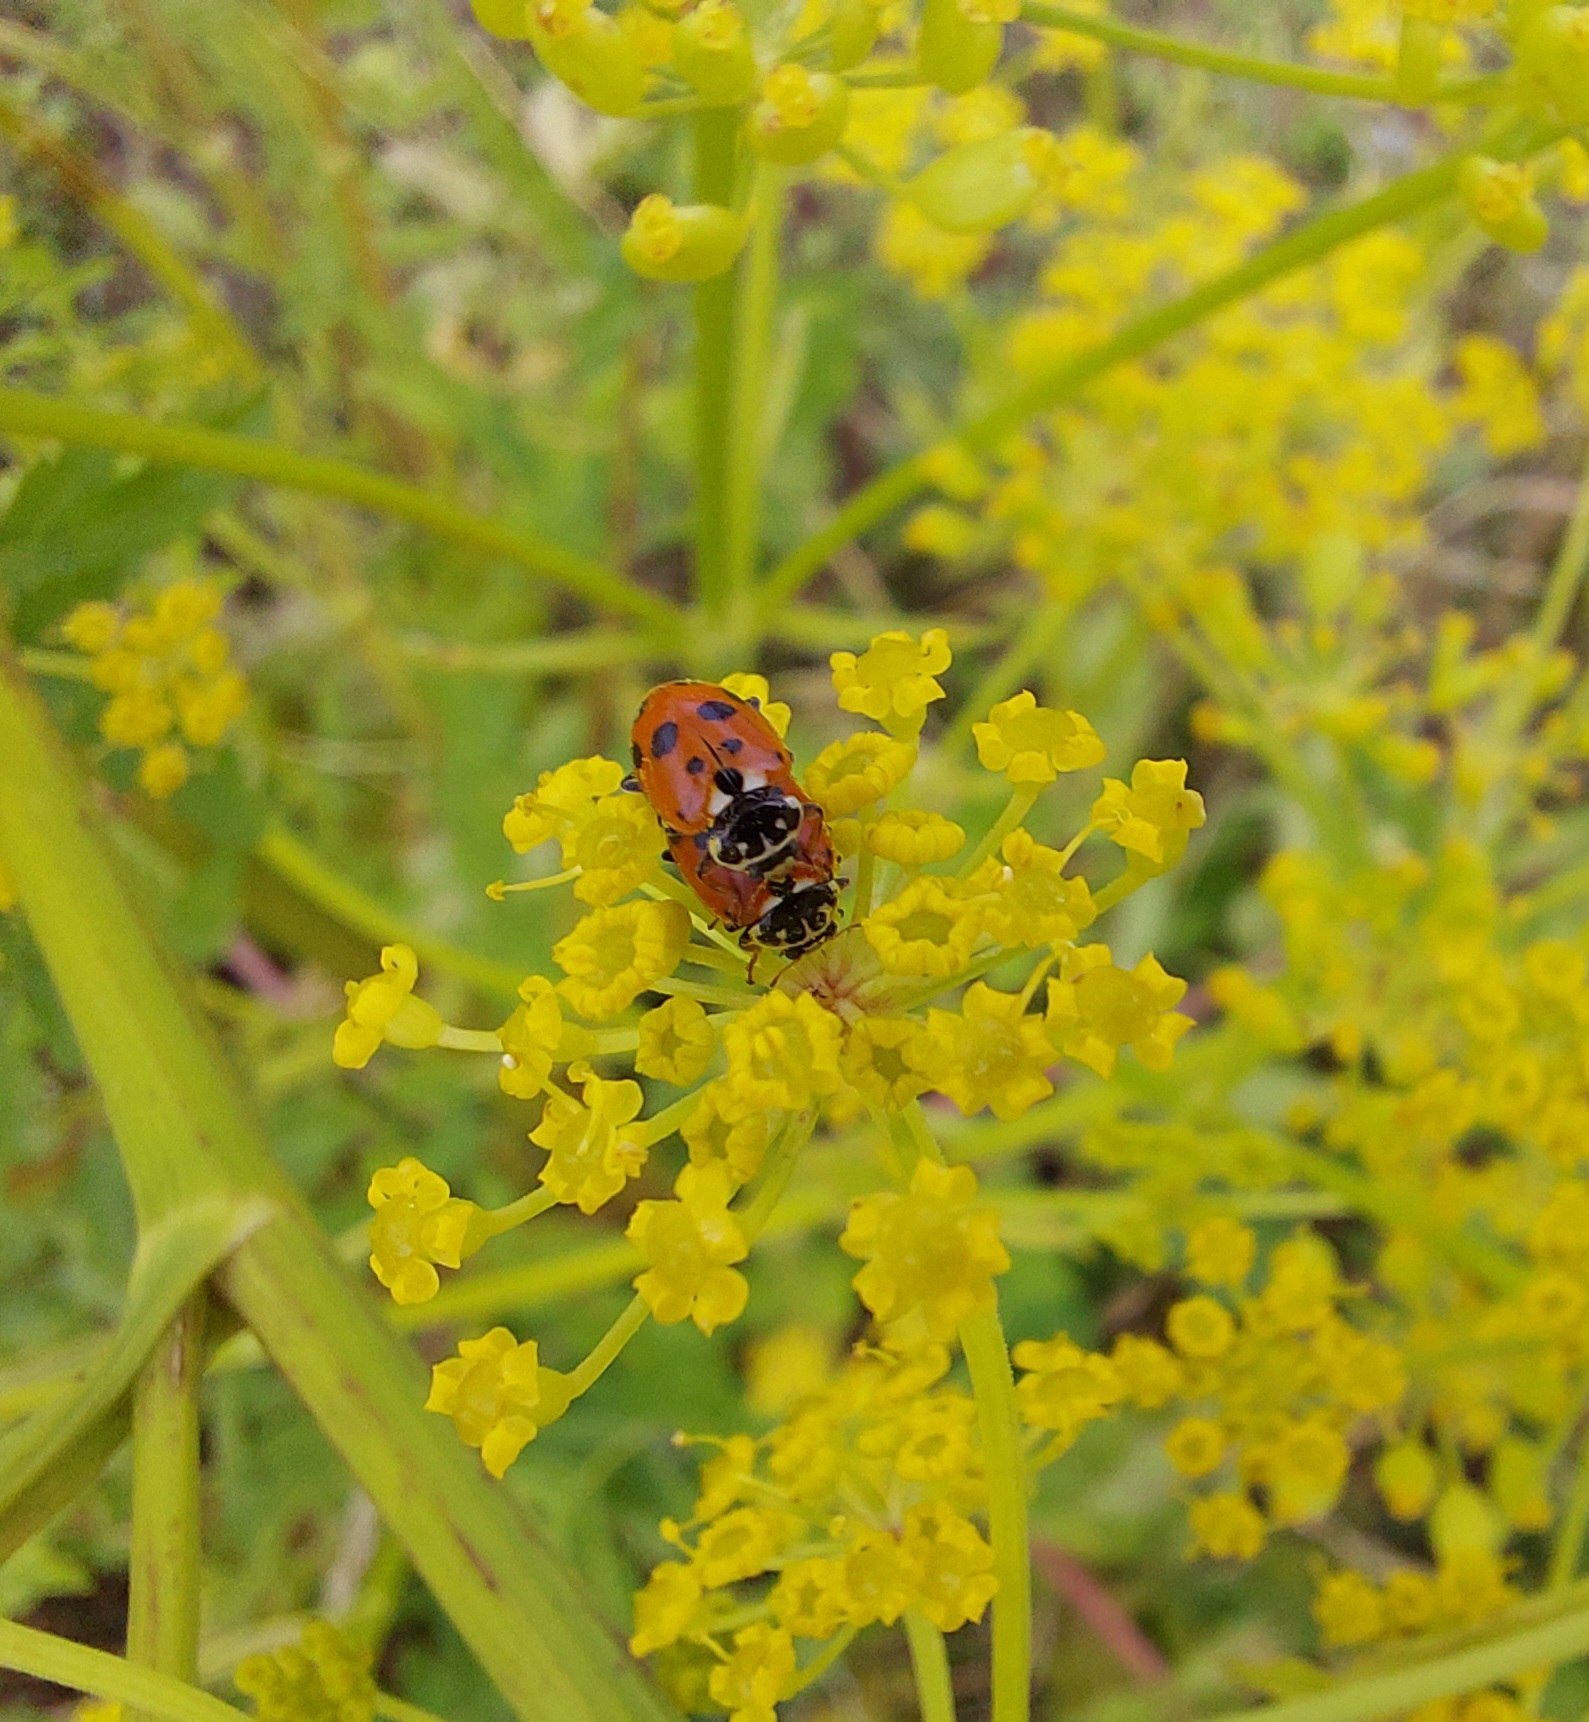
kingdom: Animalia
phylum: Arthropoda
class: Insecta
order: Coleoptera
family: Coccinellidae
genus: Hippodamia
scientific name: Hippodamia variegata
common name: Adonis' mariehøne
